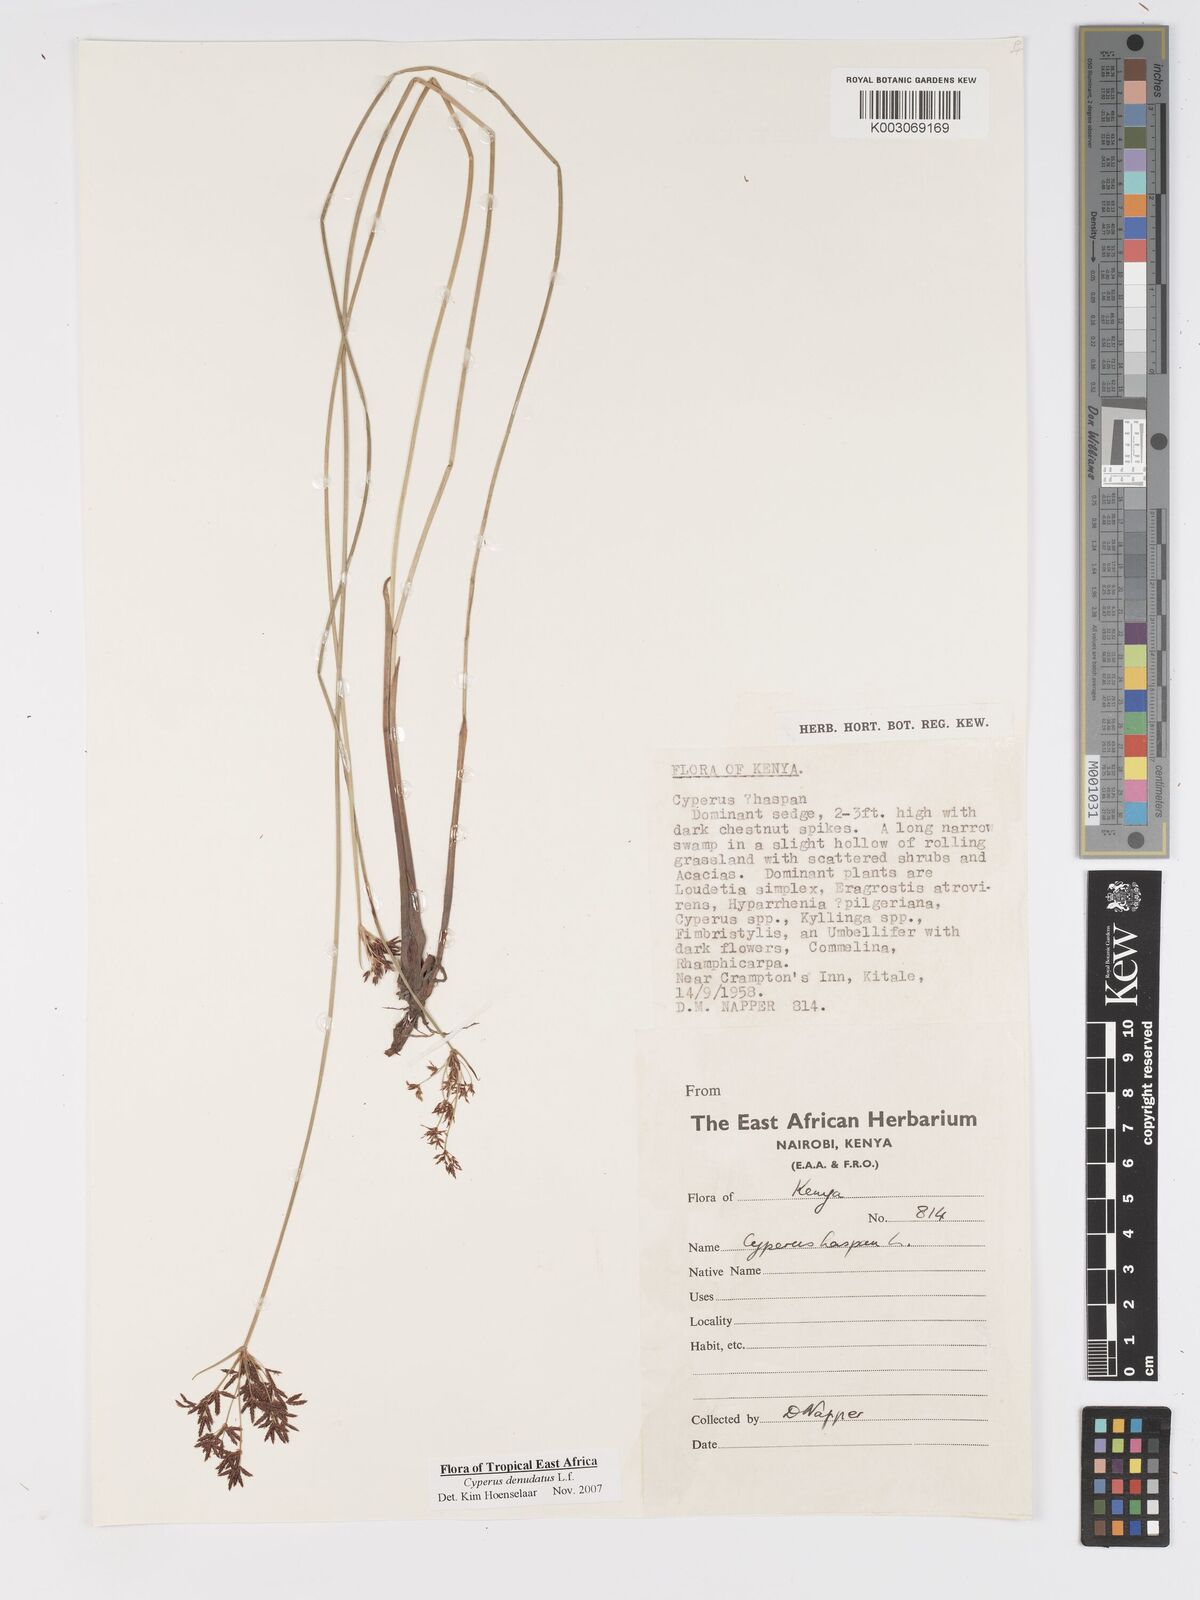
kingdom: Plantae
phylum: Tracheophyta
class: Liliopsida
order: Poales
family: Cyperaceae
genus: Cyperus
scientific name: Cyperus platycaulis
